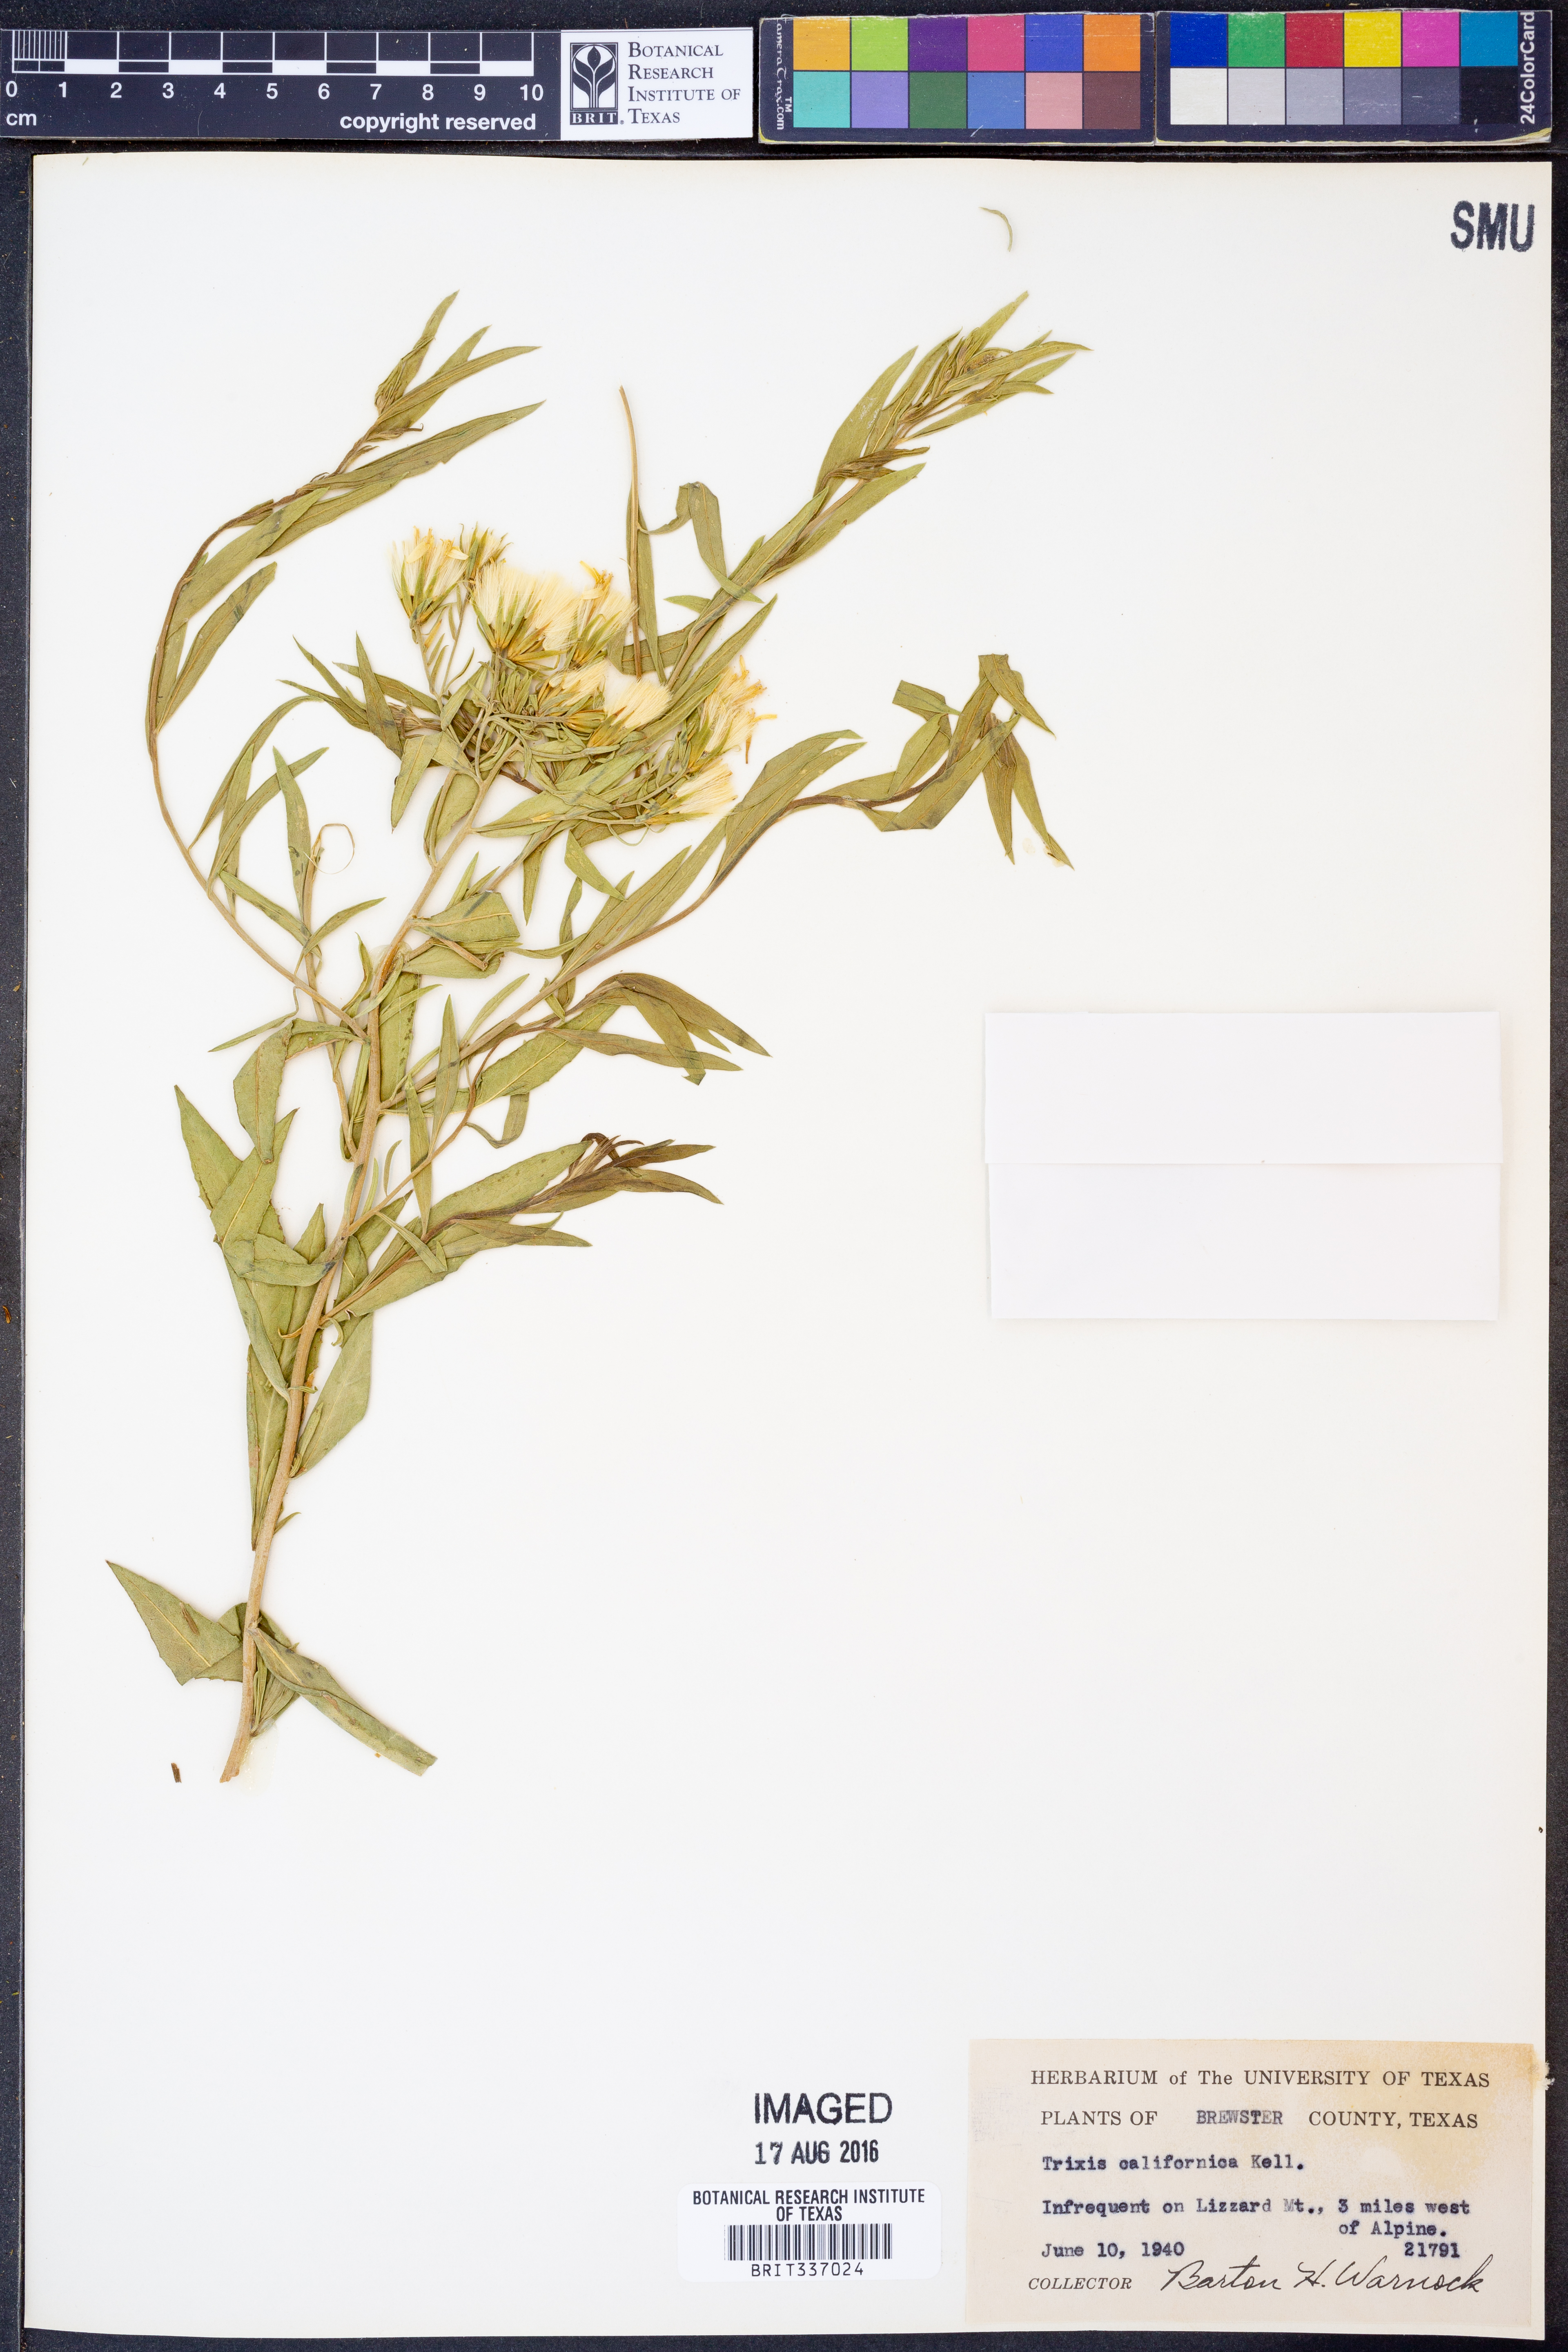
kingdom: Plantae
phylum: Tracheophyta
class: Magnoliopsida
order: Asterales
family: Asteraceae
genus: Trixis
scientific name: Trixis californica
